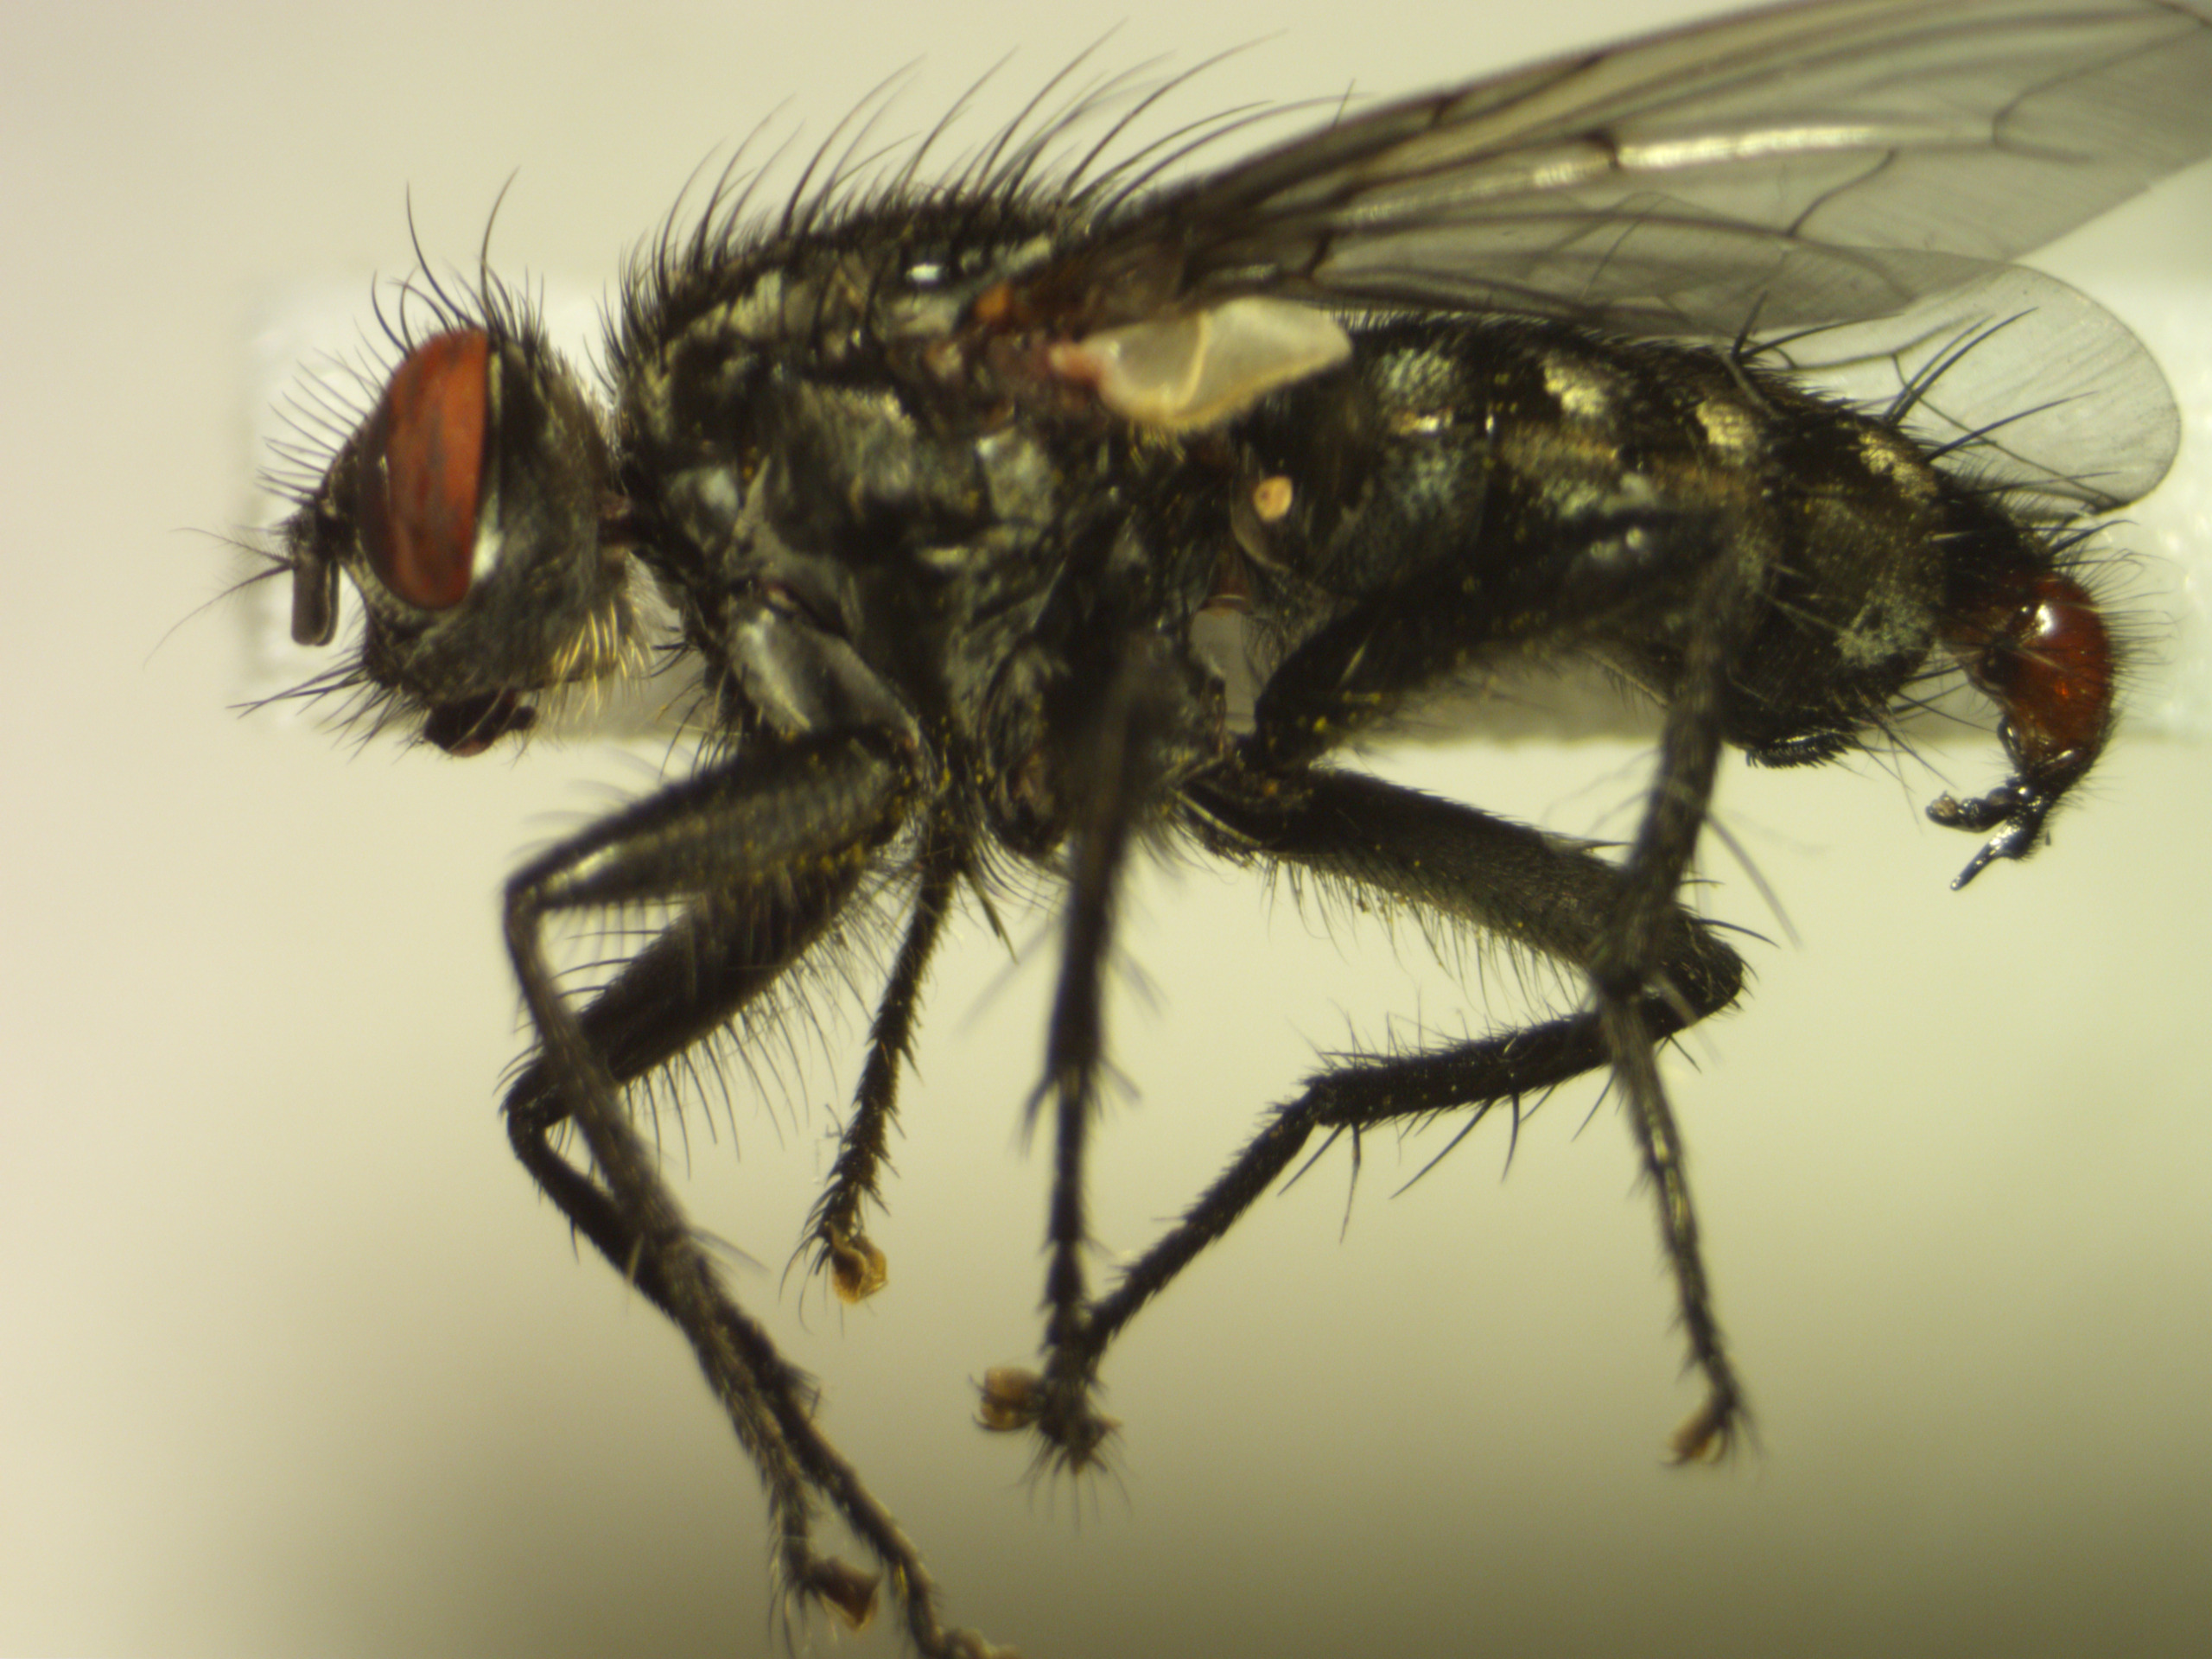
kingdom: Animalia
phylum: Arthropoda
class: Insecta
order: Diptera
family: Sarcophagidae
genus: Sarcophaga
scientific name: Sarcophaga haemorrhoa
